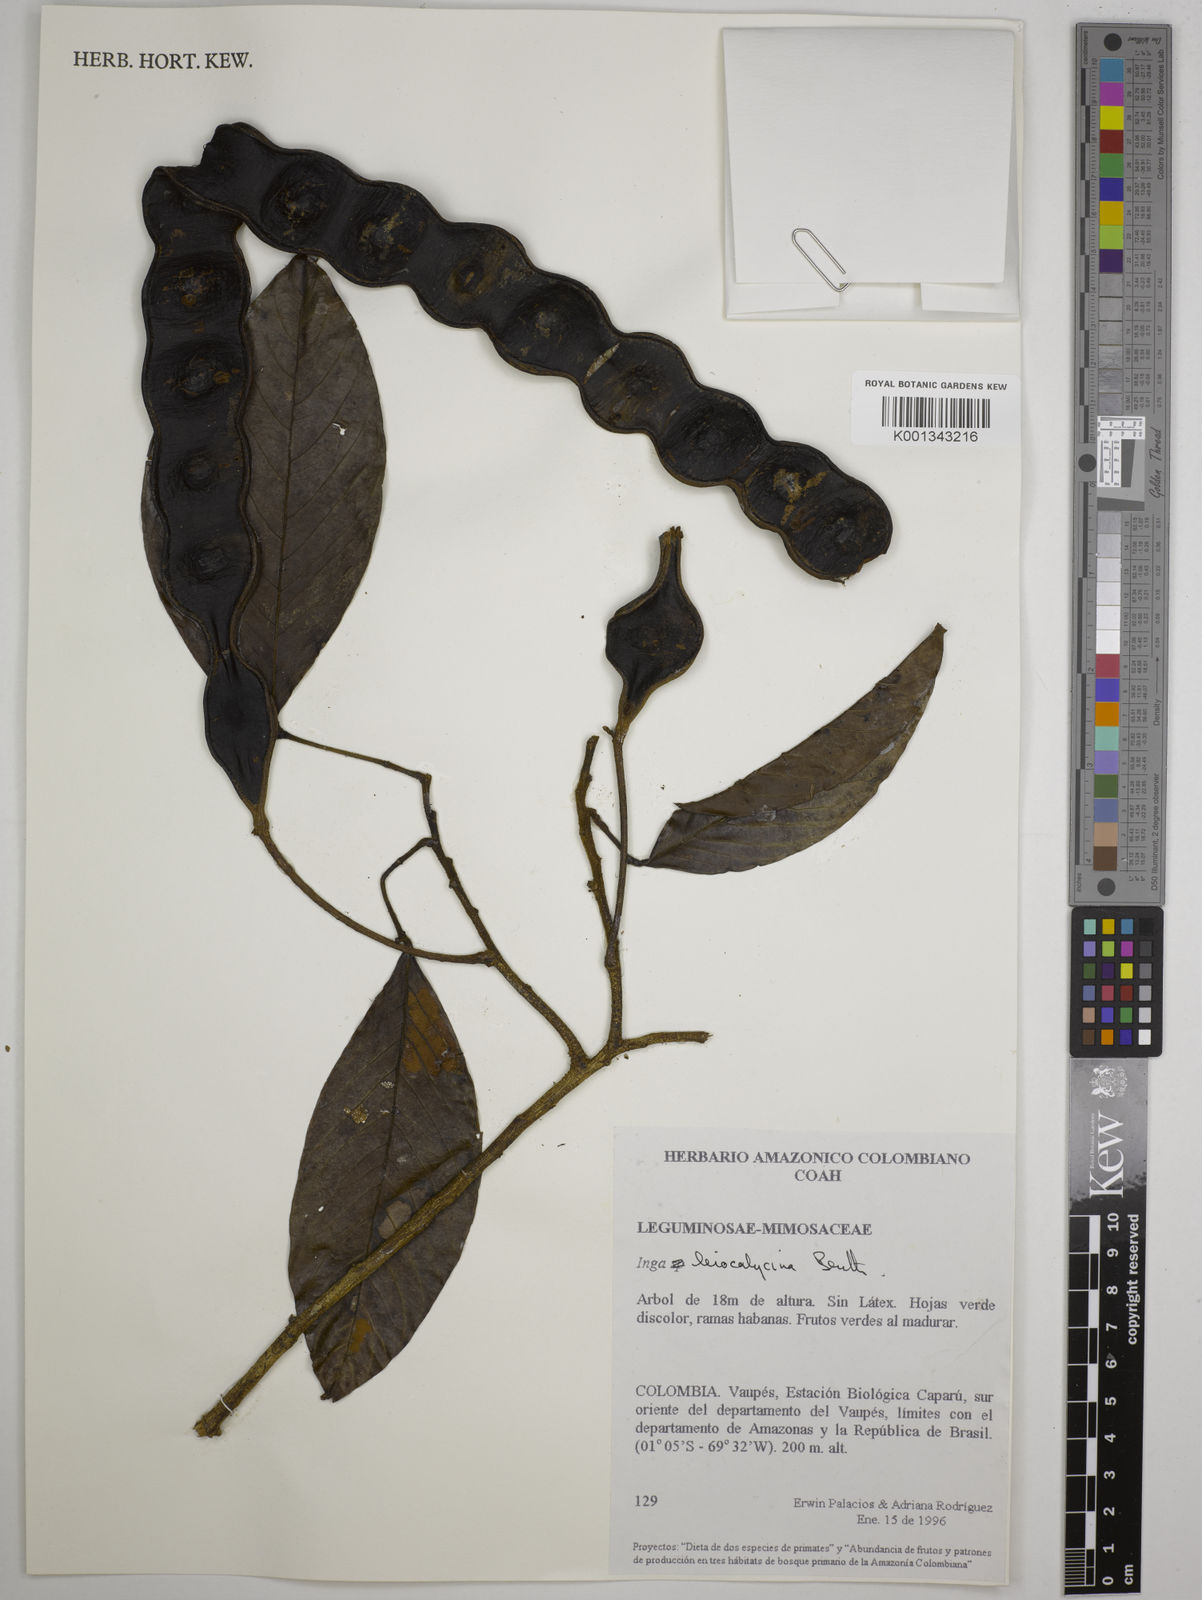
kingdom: Plantae
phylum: Tracheophyta
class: Magnoliopsida
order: Fabales
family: Fabaceae
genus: Inga
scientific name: Inga laevigata
